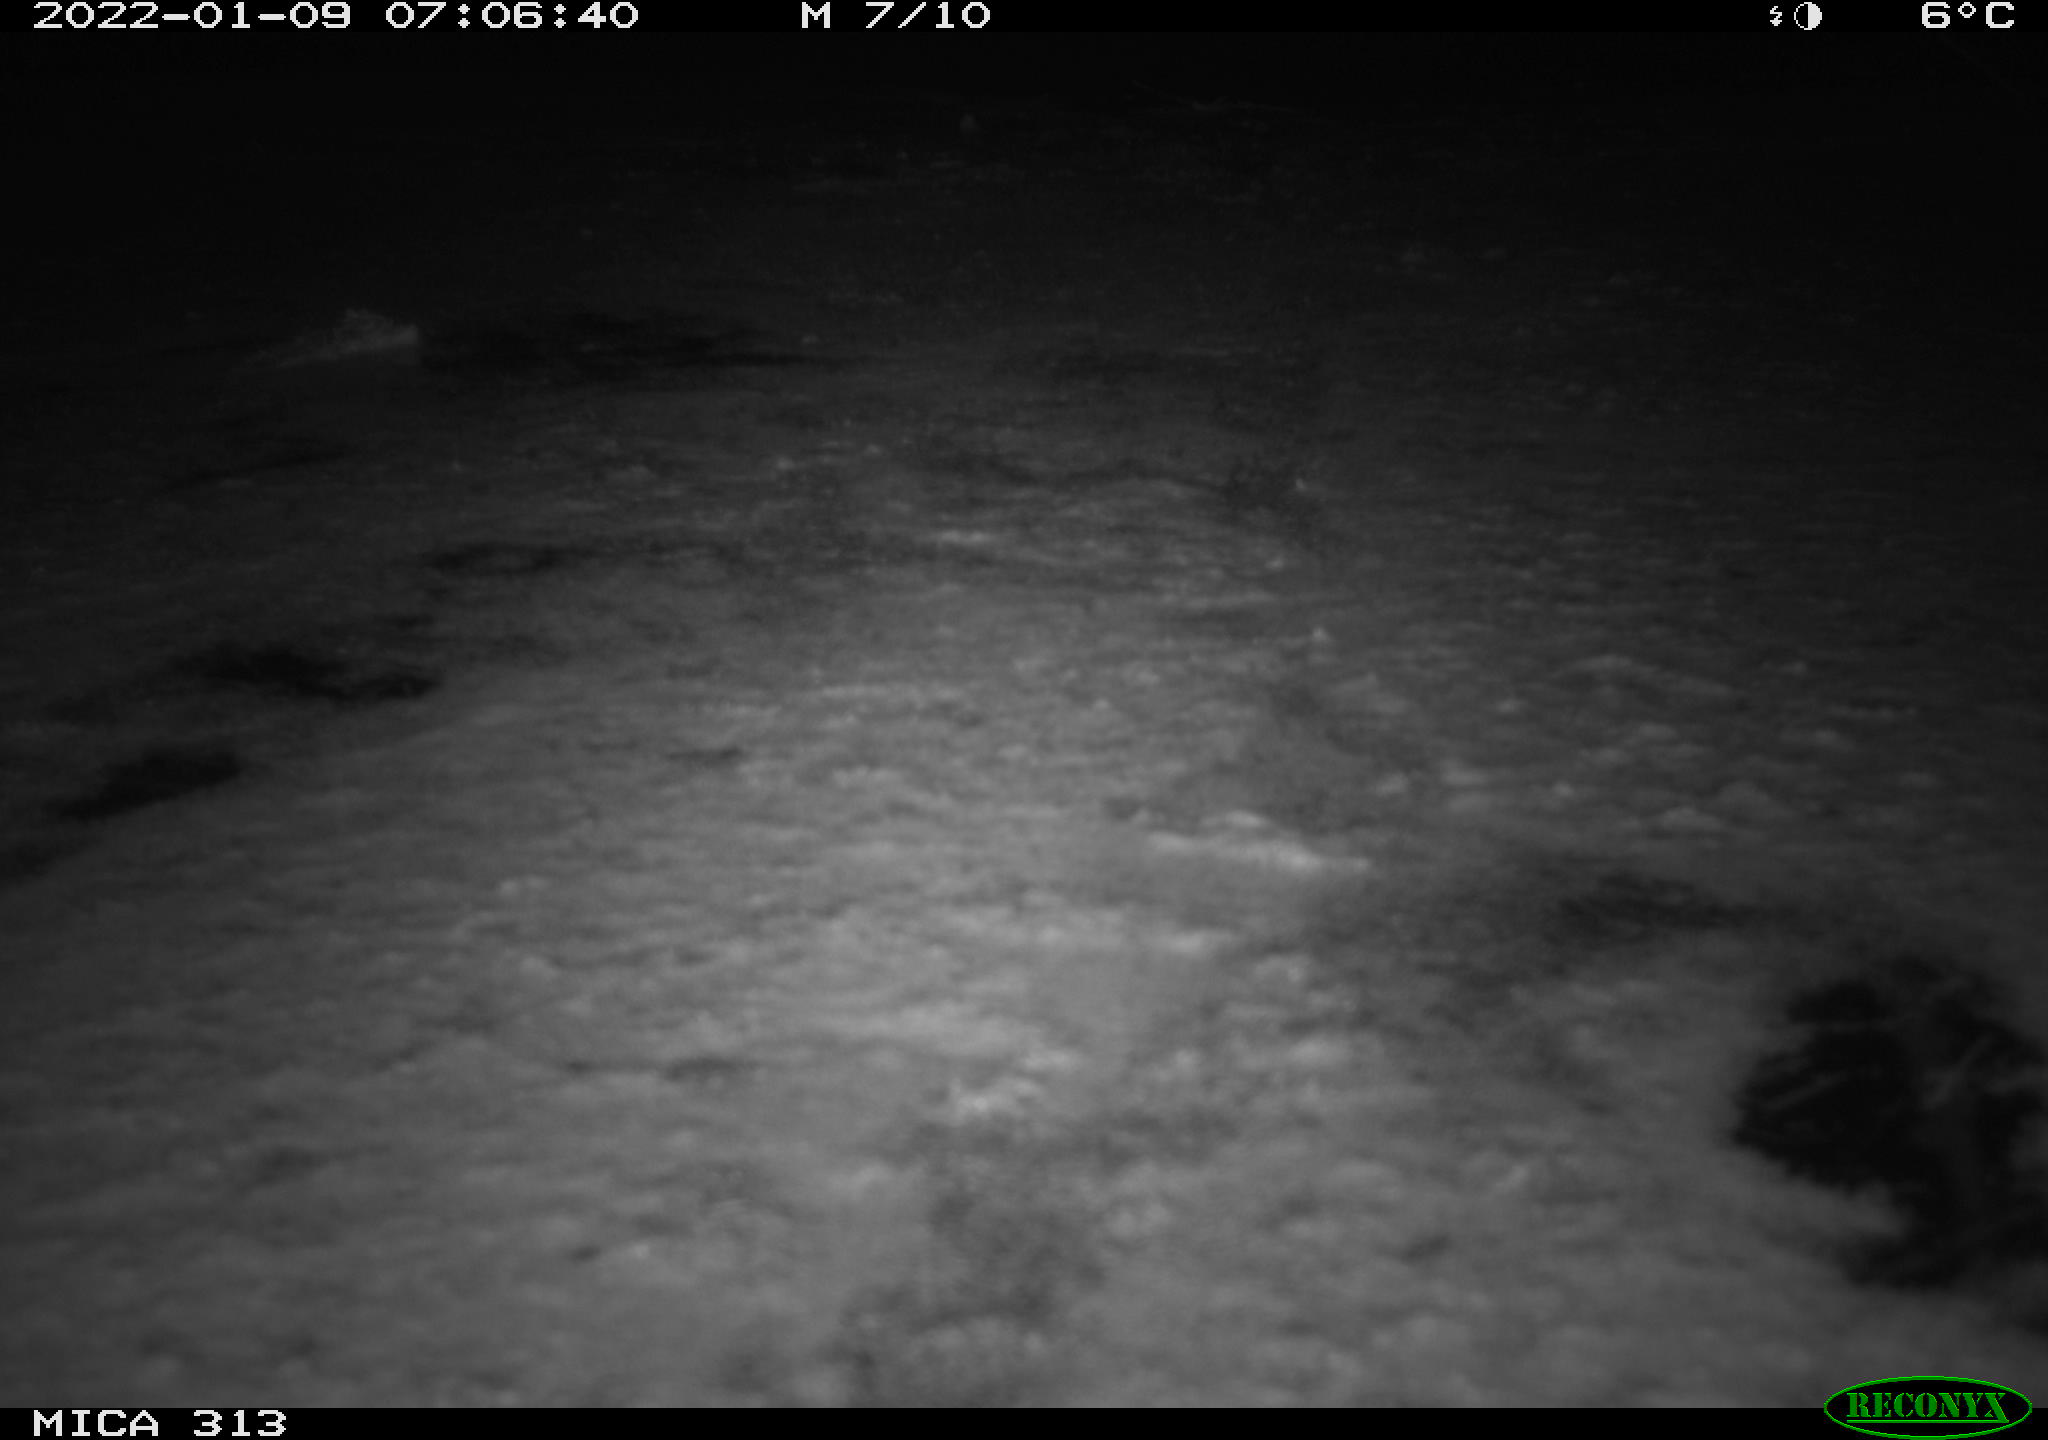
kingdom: Animalia
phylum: Chordata
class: Aves
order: Gruiformes
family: Rallidae
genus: Gallinula
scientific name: Gallinula chloropus
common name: Common moorhen
